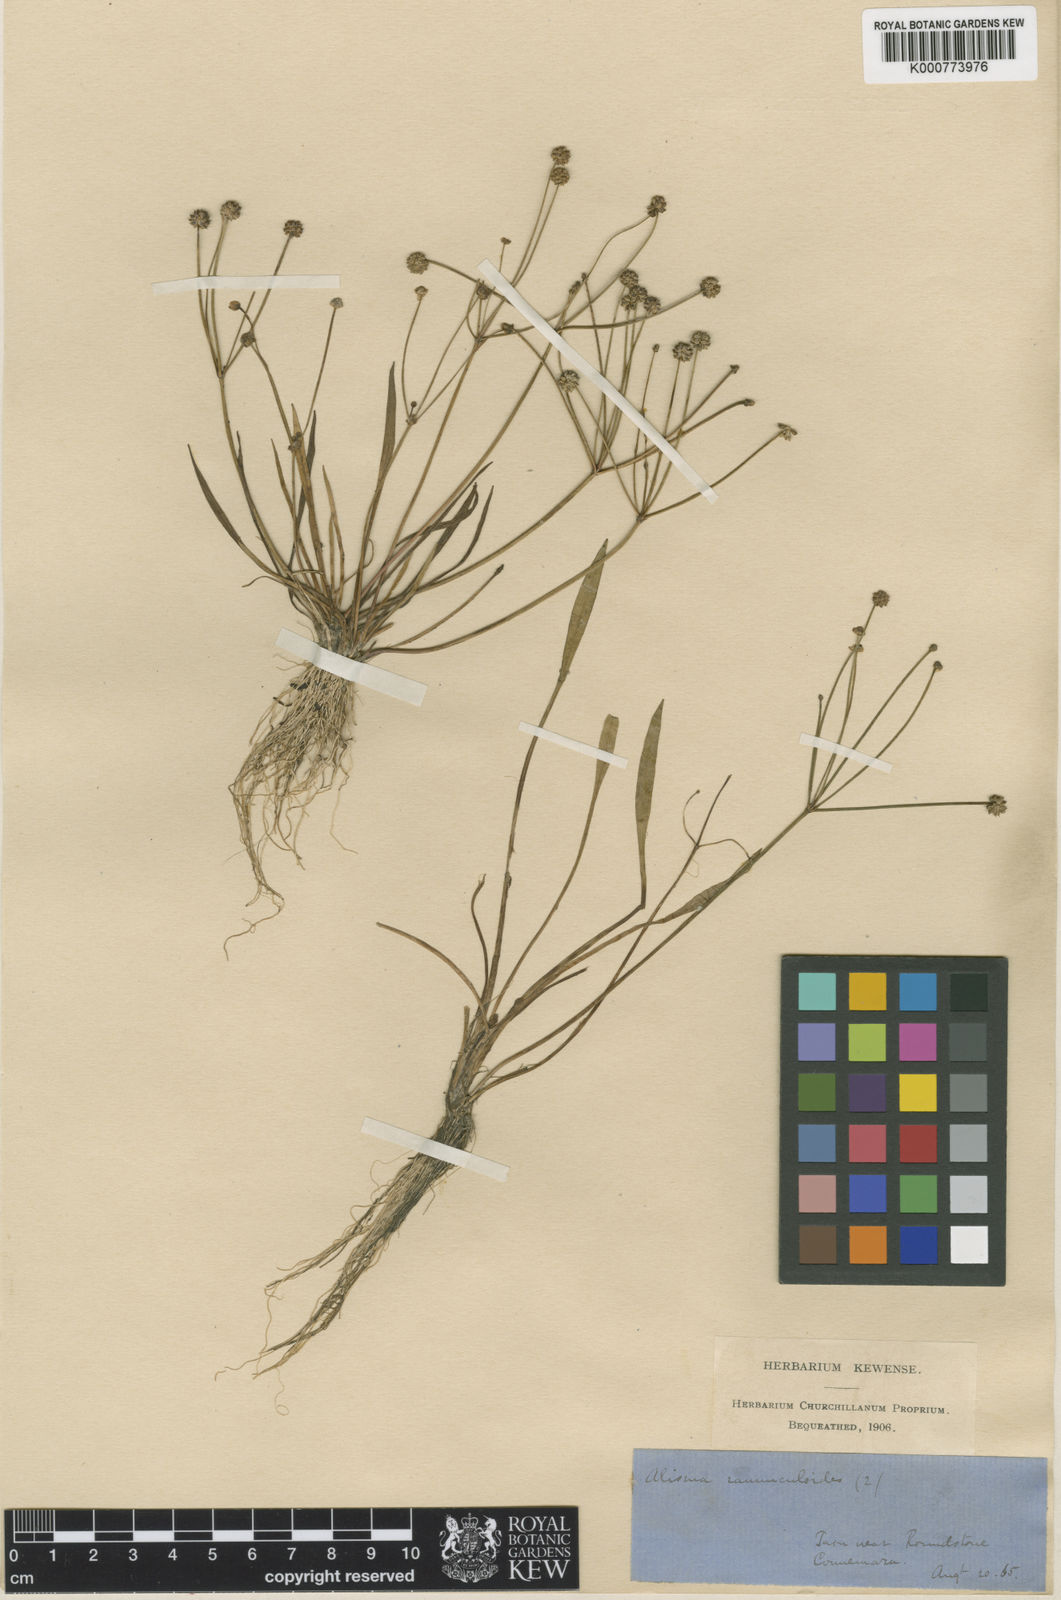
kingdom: Plantae
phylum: Tracheophyta
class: Liliopsida
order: Alismatales
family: Alismataceae
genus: Baldellia
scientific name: Baldellia ranunculoides
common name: Lesser water-plantain
